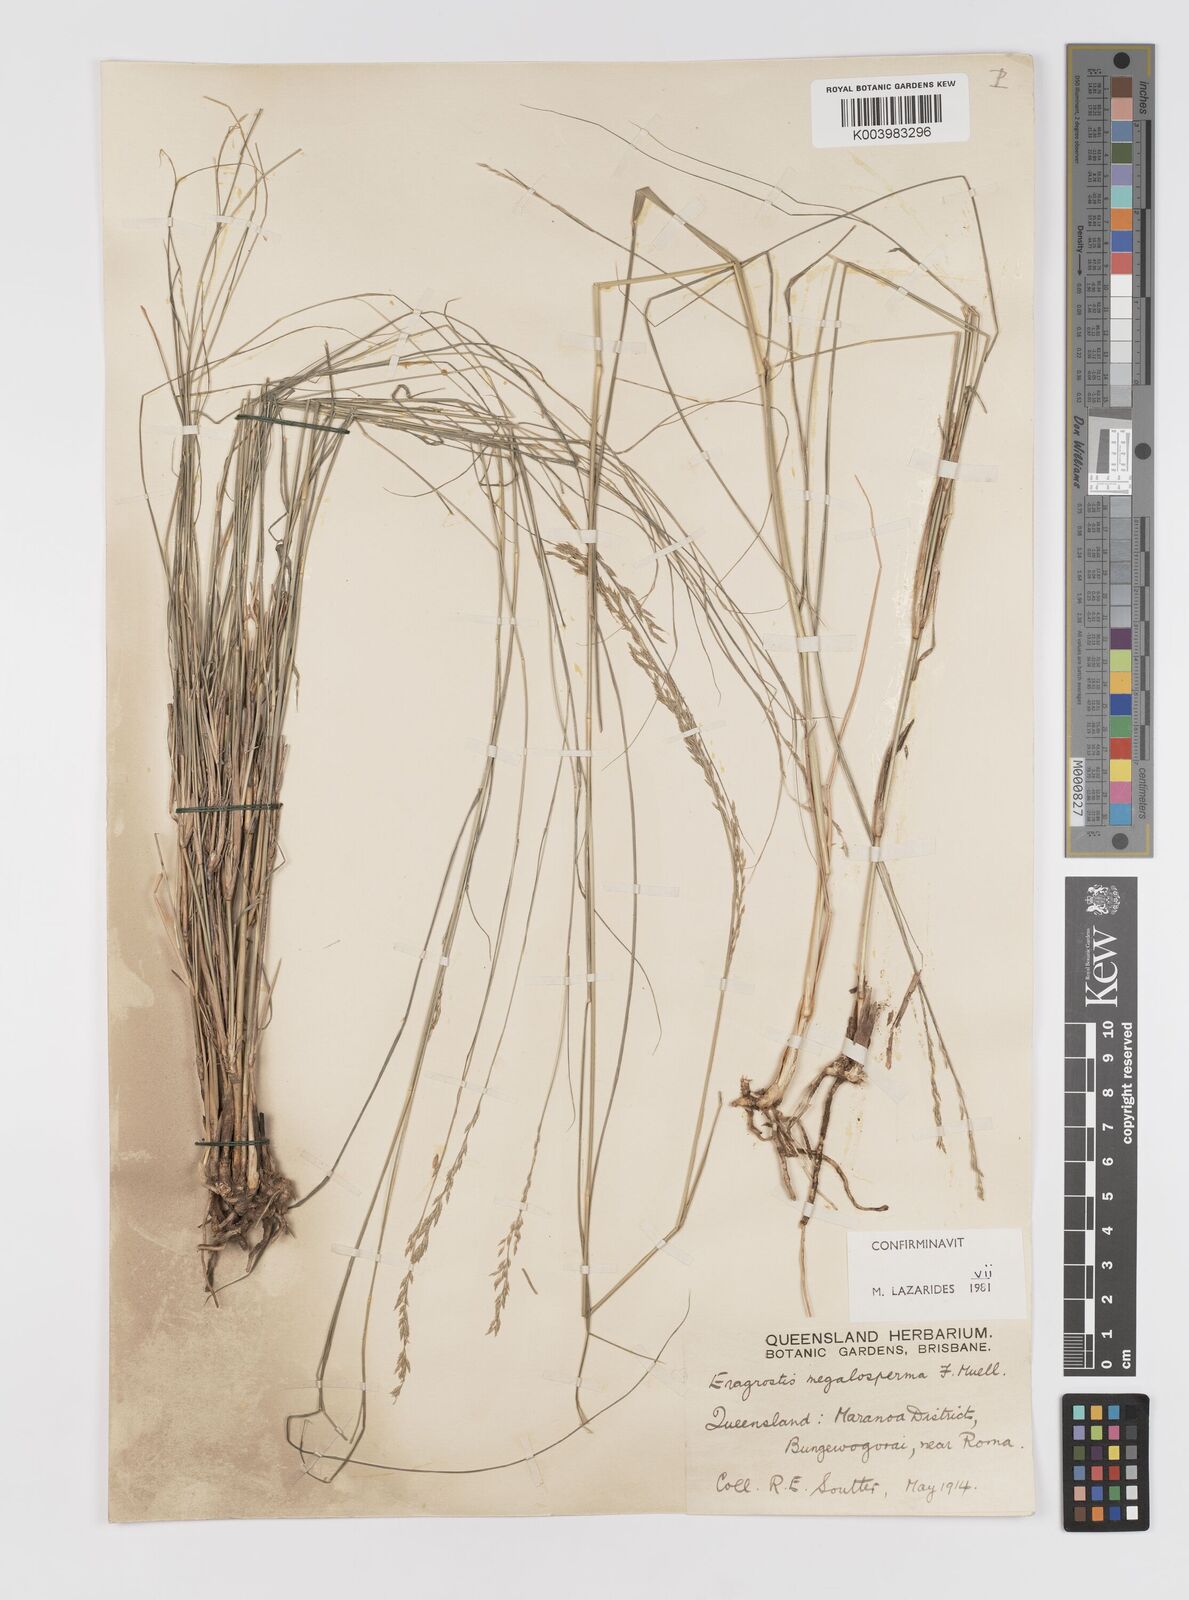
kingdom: Plantae
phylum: Tracheophyta
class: Liliopsida
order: Poales
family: Poaceae
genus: Sporobolus
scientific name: Sporobolus megalospermus
